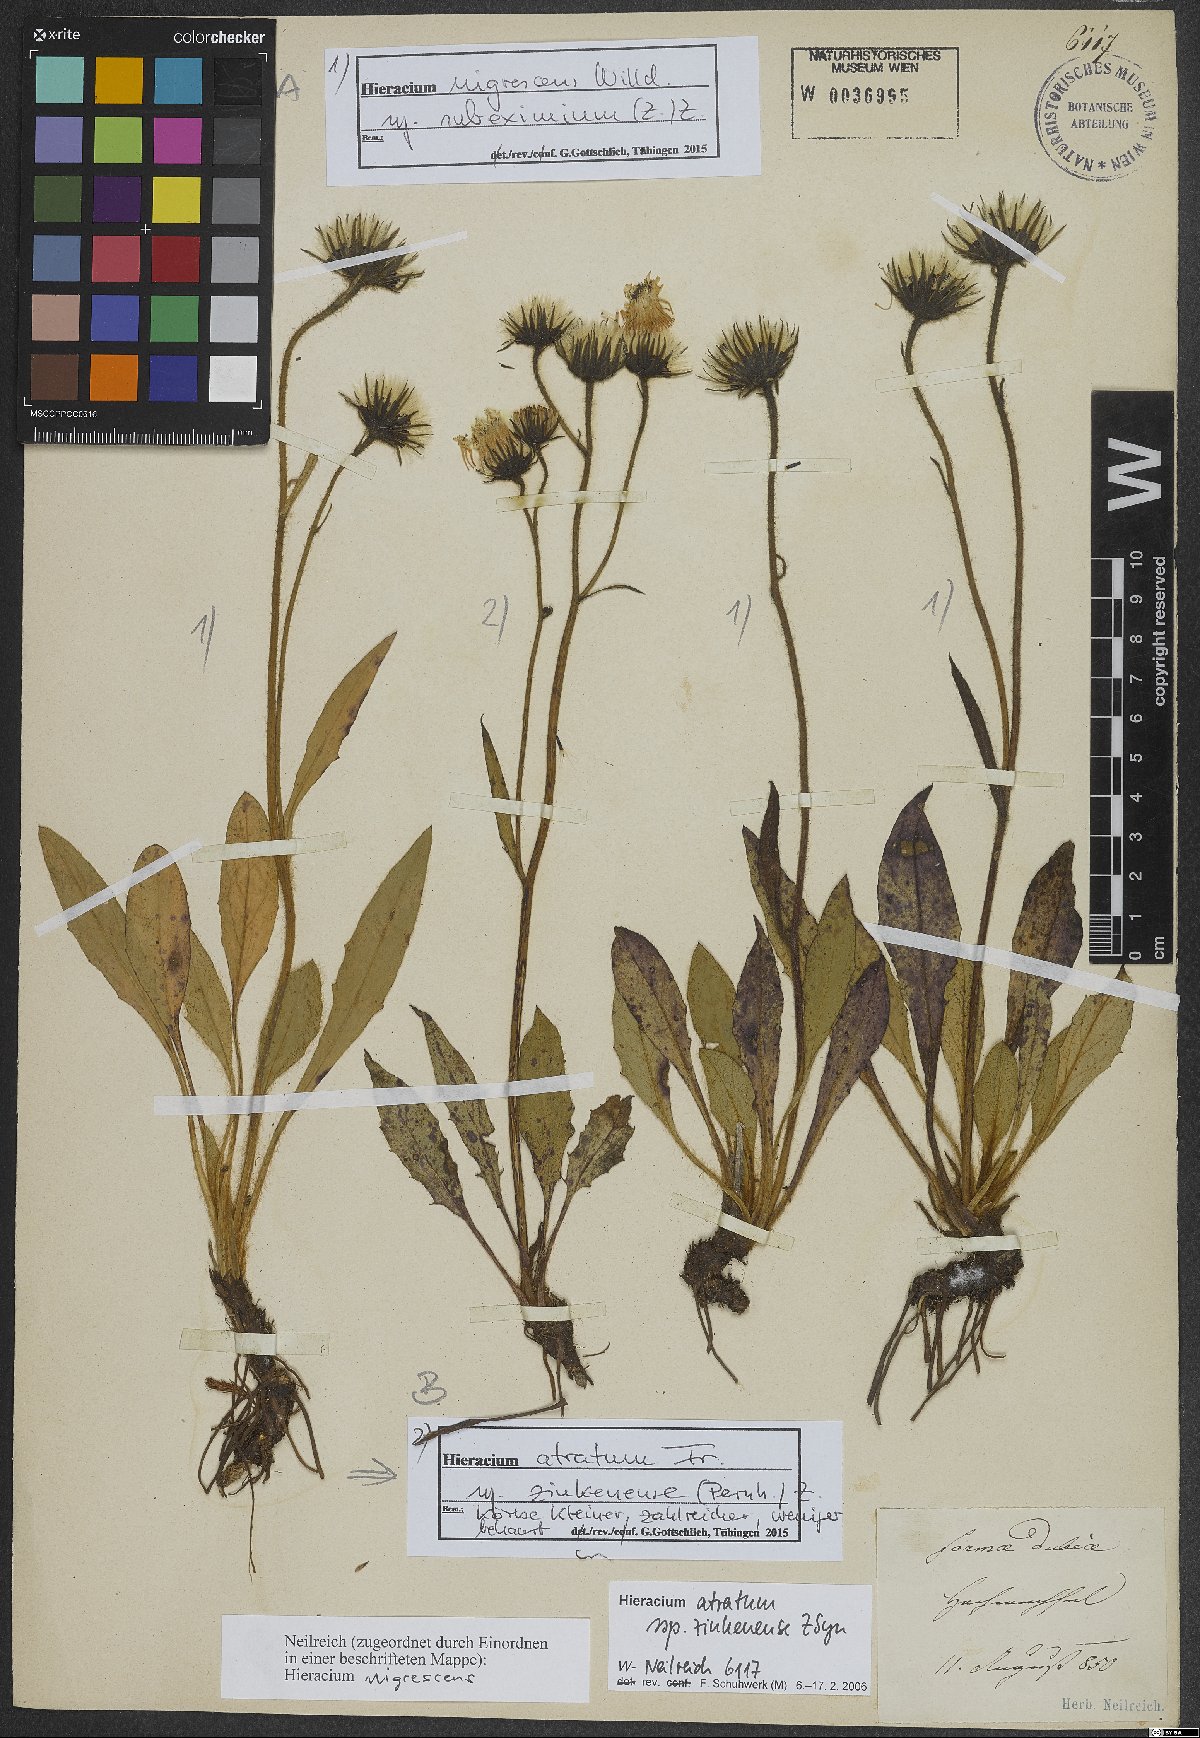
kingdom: Plantae
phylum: Tracheophyta
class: Magnoliopsida
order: Asterales
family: Asteraceae
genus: Hieracium
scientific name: Hieracium nigrescens
